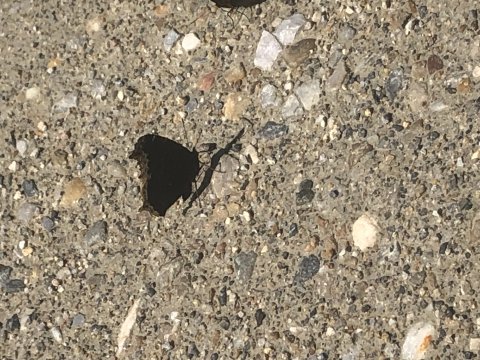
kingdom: Animalia
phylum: Arthropoda
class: Insecta
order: Lepidoptera
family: Nymphalidae
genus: Nymphalis
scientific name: Nymphalis antiopa
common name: Mourning Cloak
